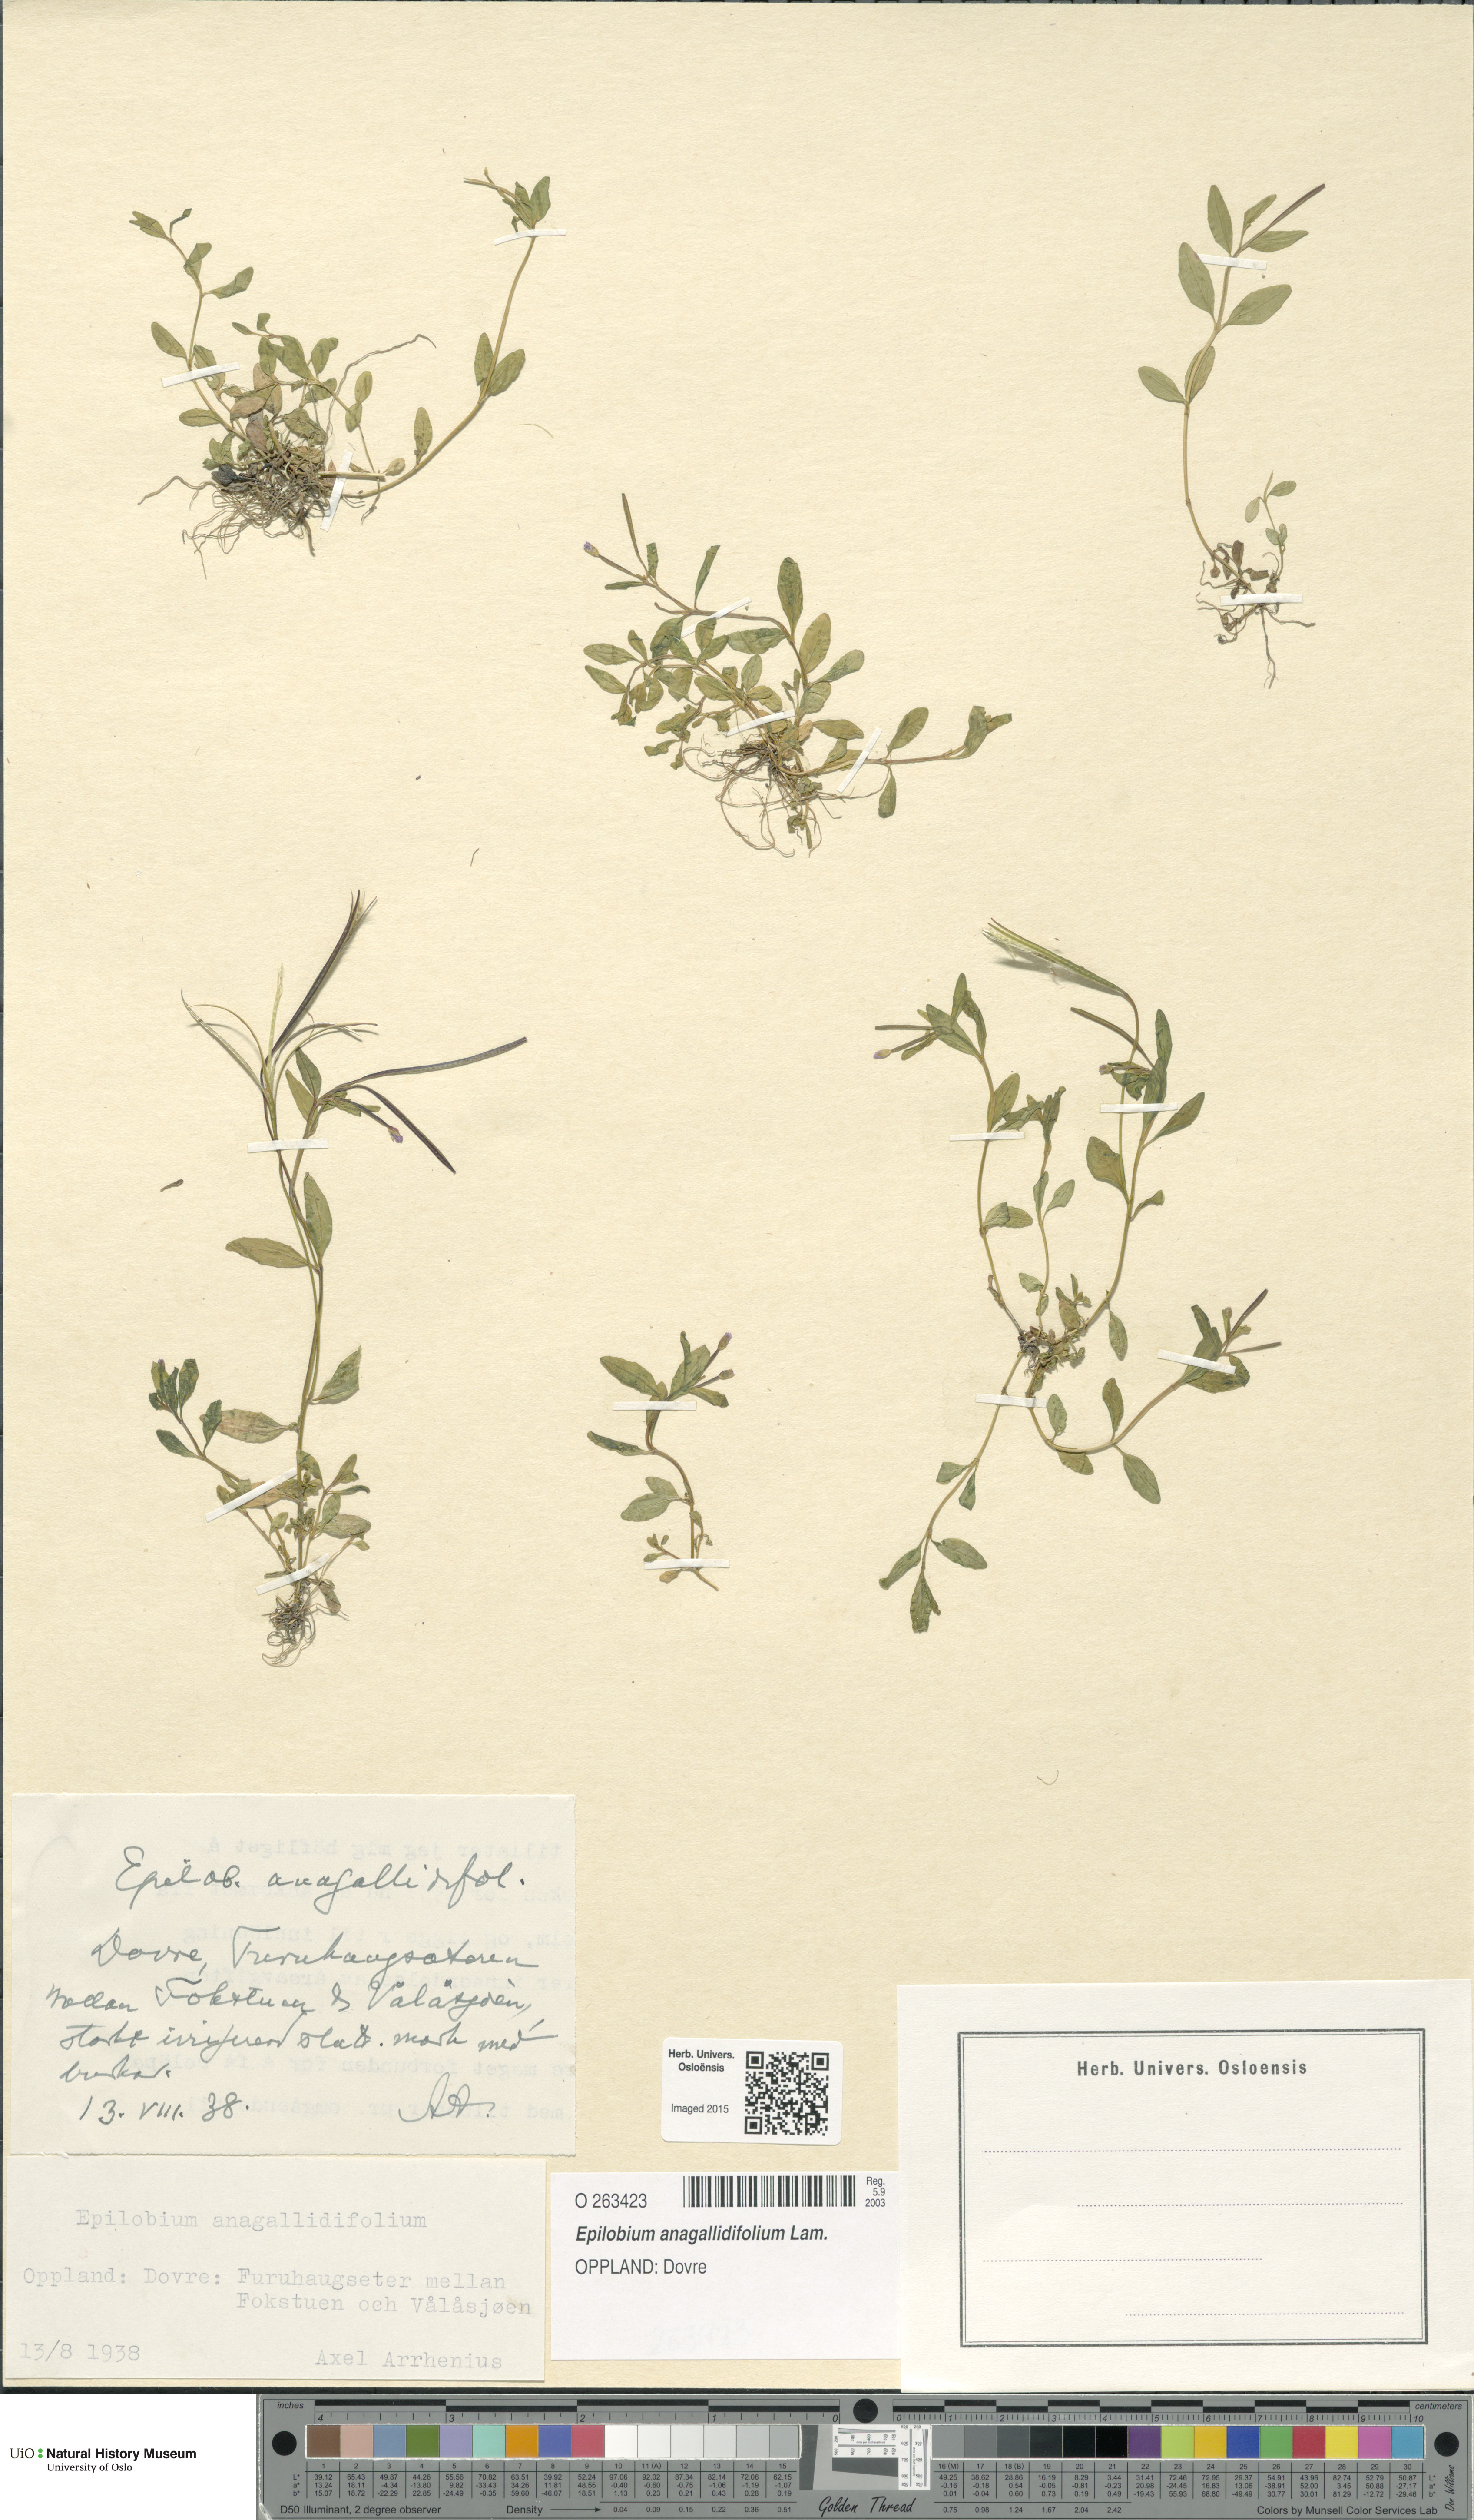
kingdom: Plantae
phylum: Tracheophyta
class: Magnoliopsida
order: Myrtales
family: Onagraceae
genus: Epilobium
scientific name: Epilobium anagallidifolium
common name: Alpine willowherb
